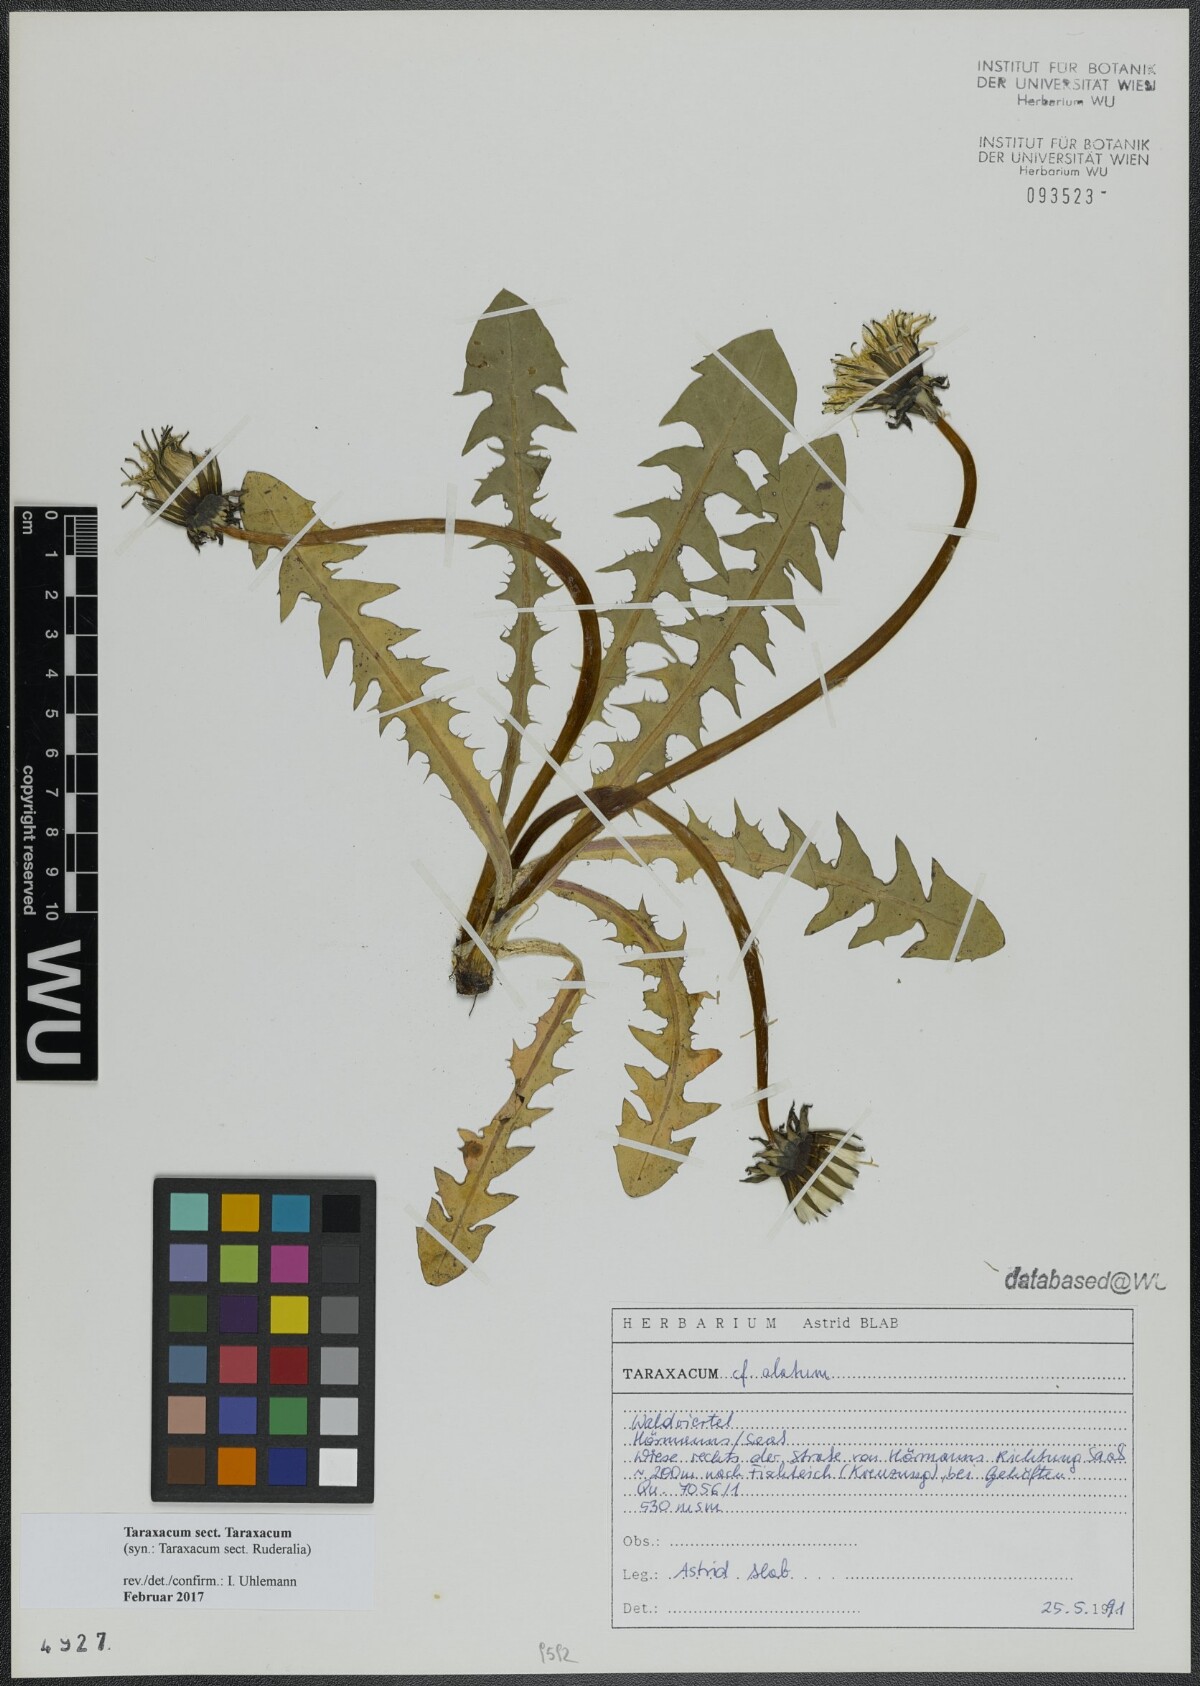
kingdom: Plantae
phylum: Tracheophyta
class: Magnoliopsida
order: Asterales
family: Asteraceae
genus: Taraxacum
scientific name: Taraxacum
